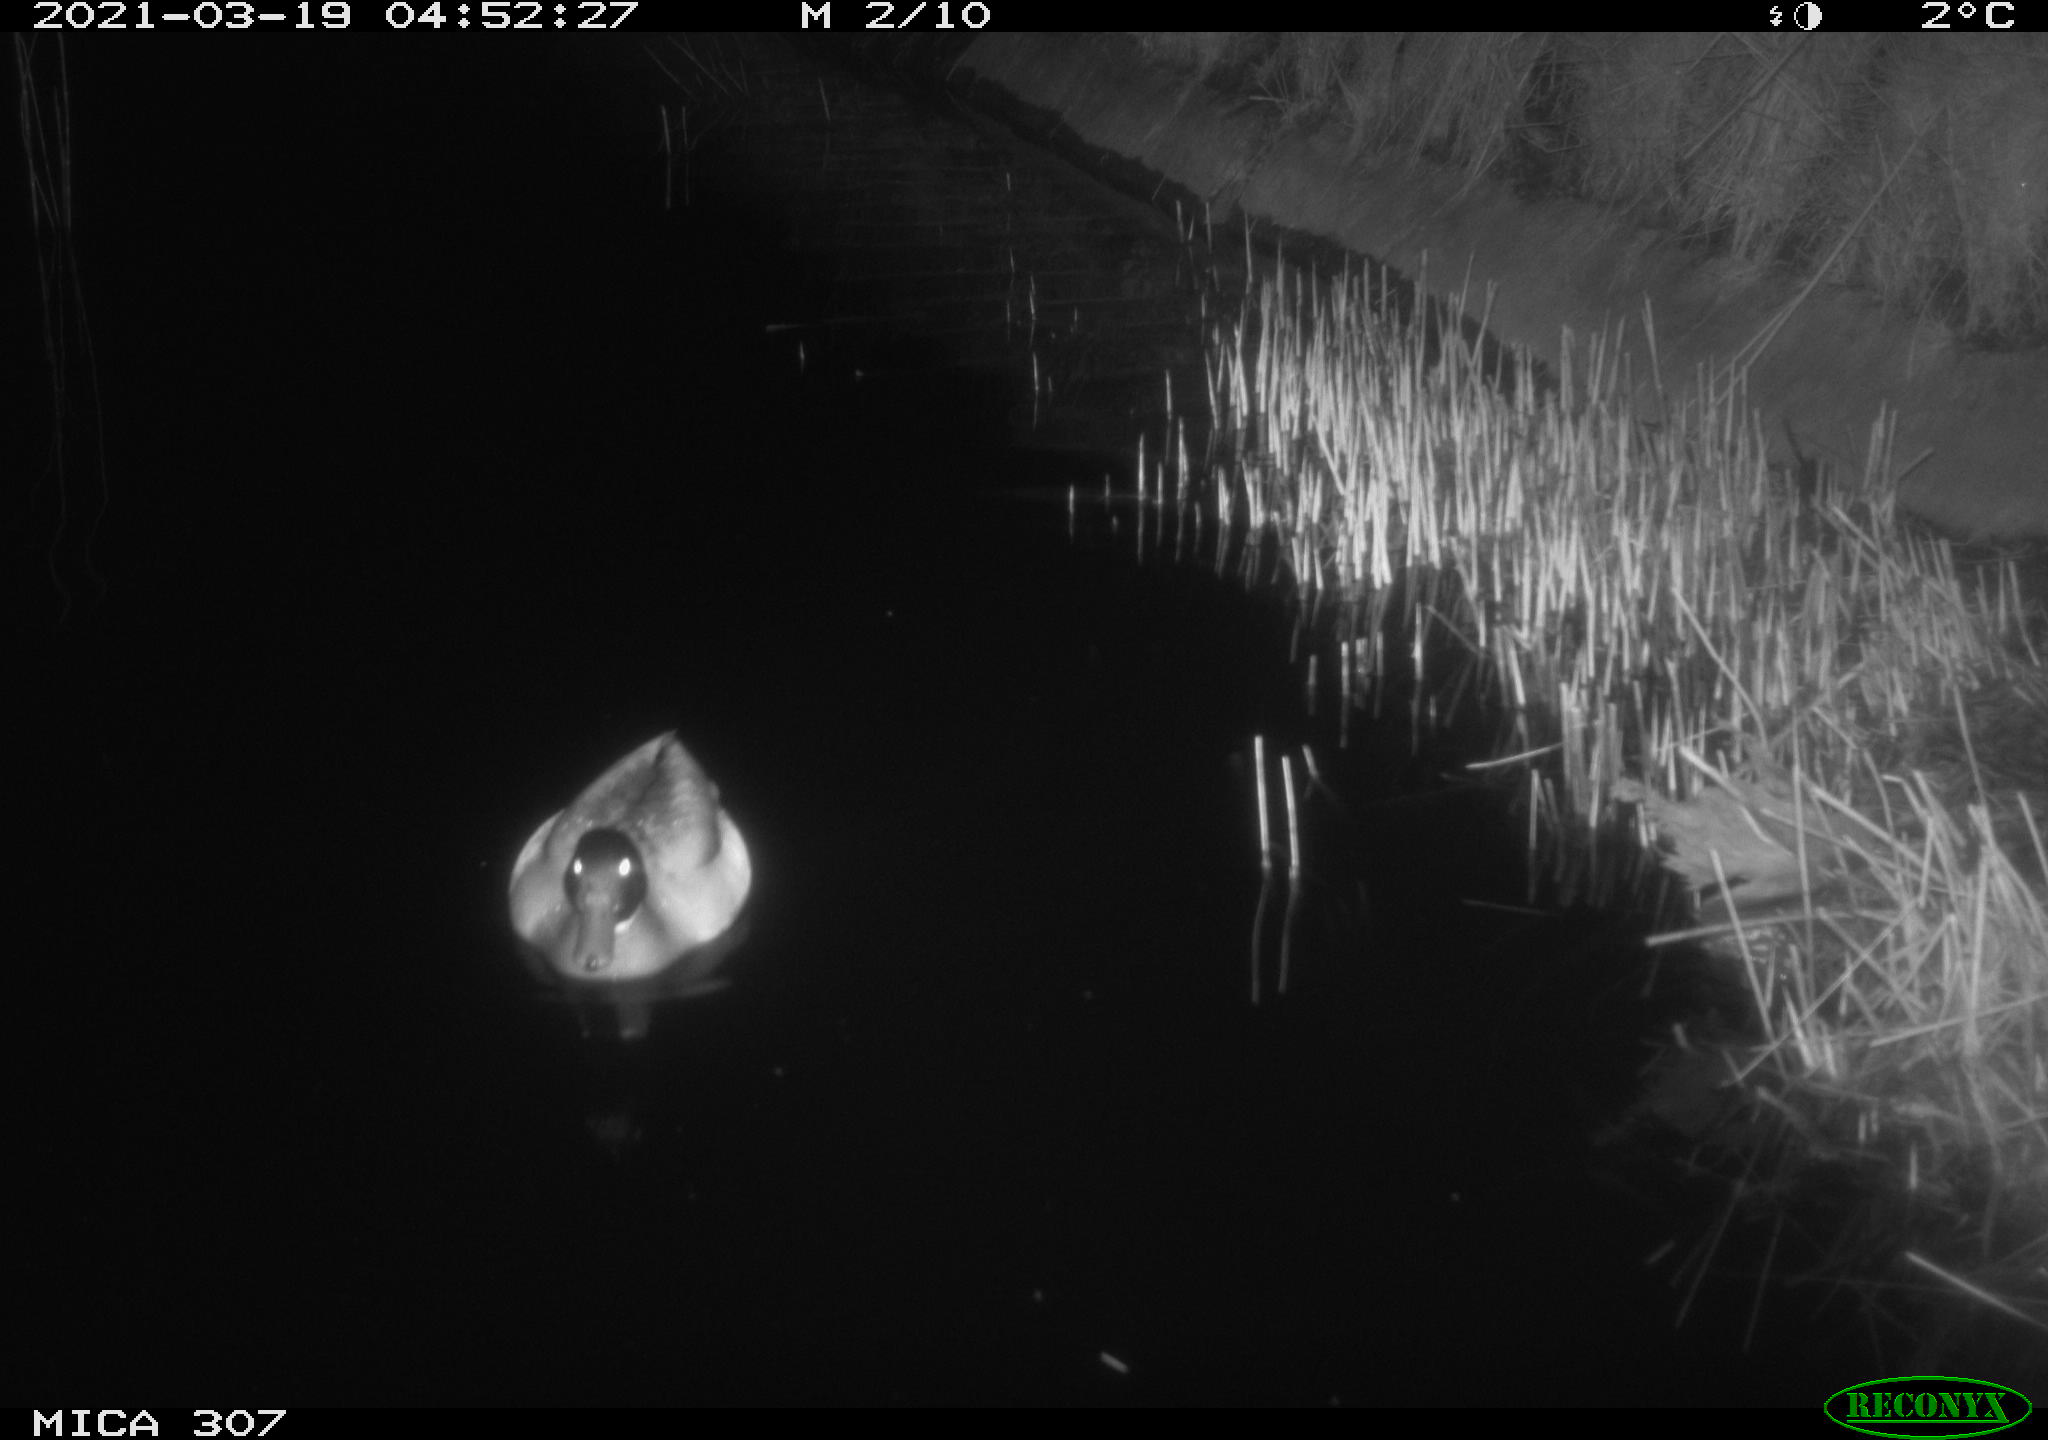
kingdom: Animalia
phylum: Chordata
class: Aves
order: Anseriformes
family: Anatidae
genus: Anas
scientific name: Anas platyrhynchos
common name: Mallard
